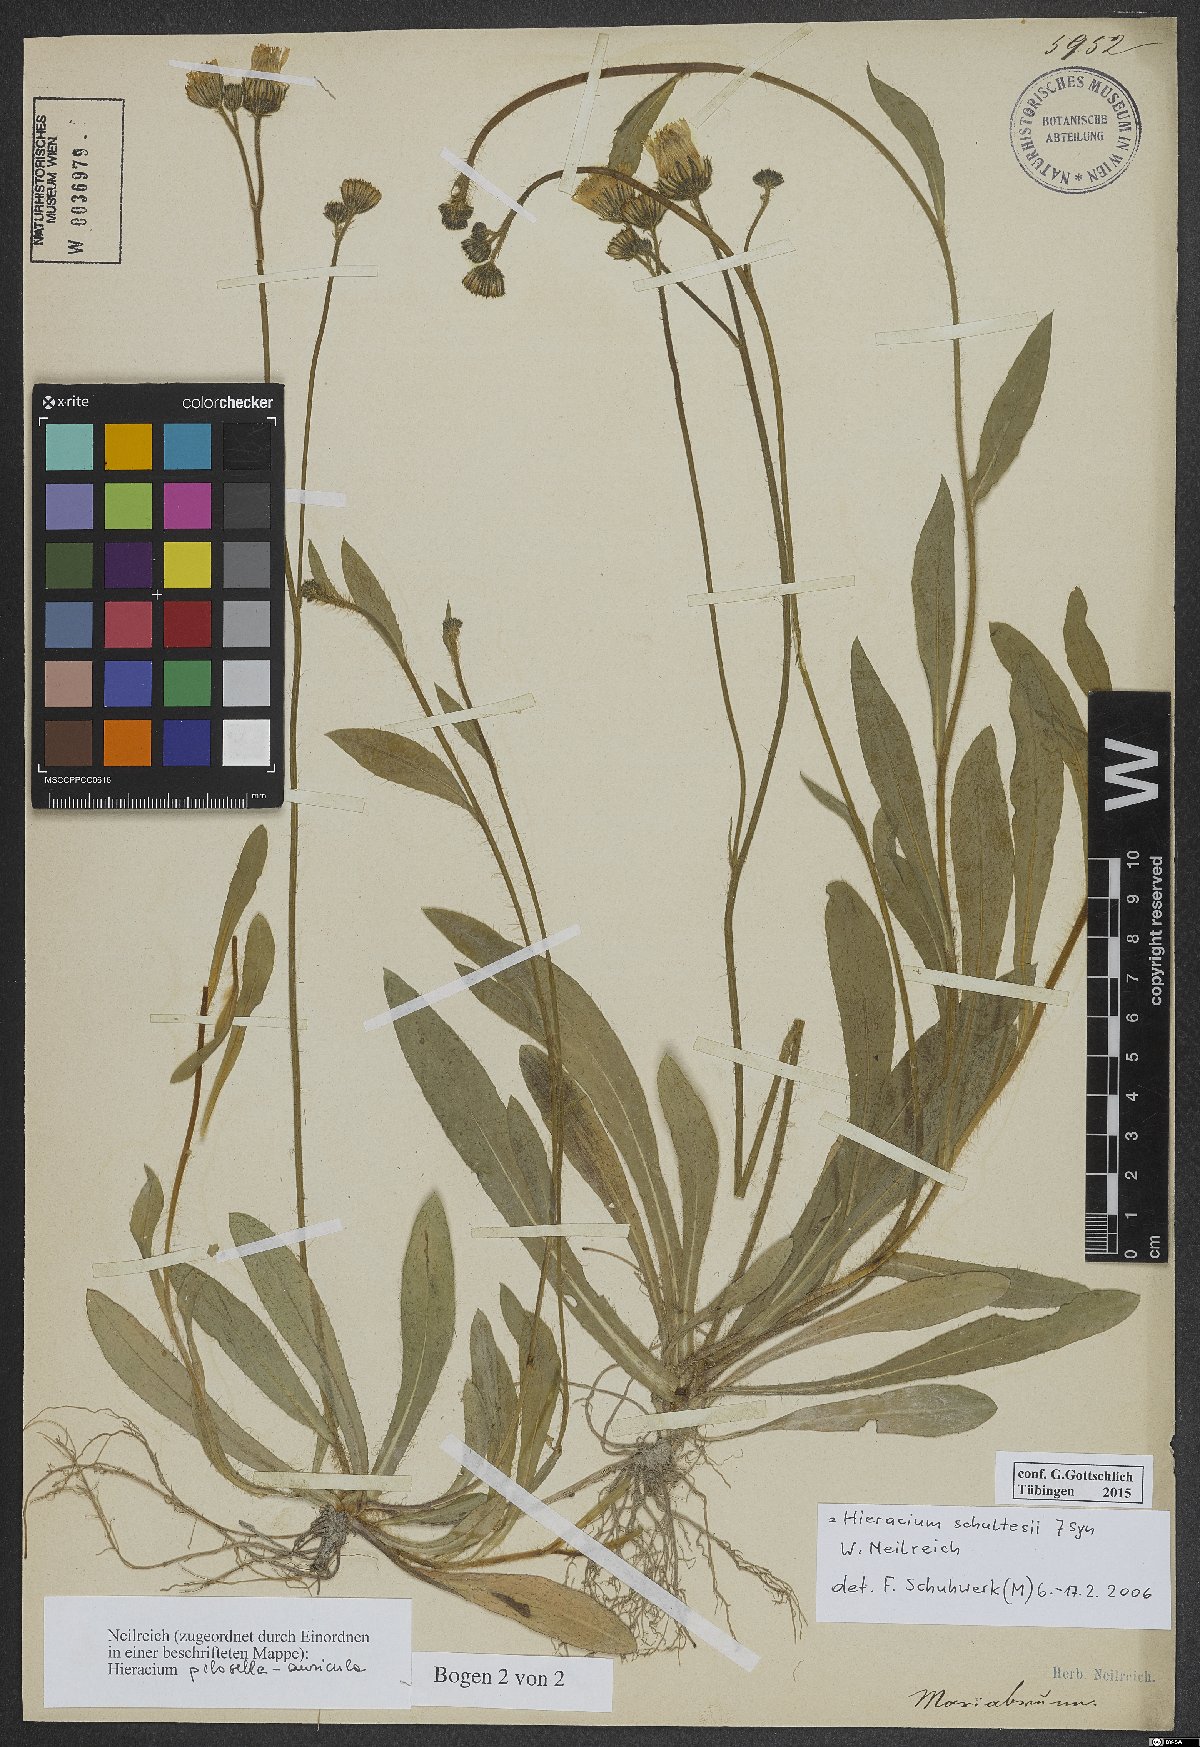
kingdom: Plantae
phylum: Tracheophyta
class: Magnoliopsida
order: Asterales
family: Asteraceae
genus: Pilosella
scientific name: Pilosella schultesii
